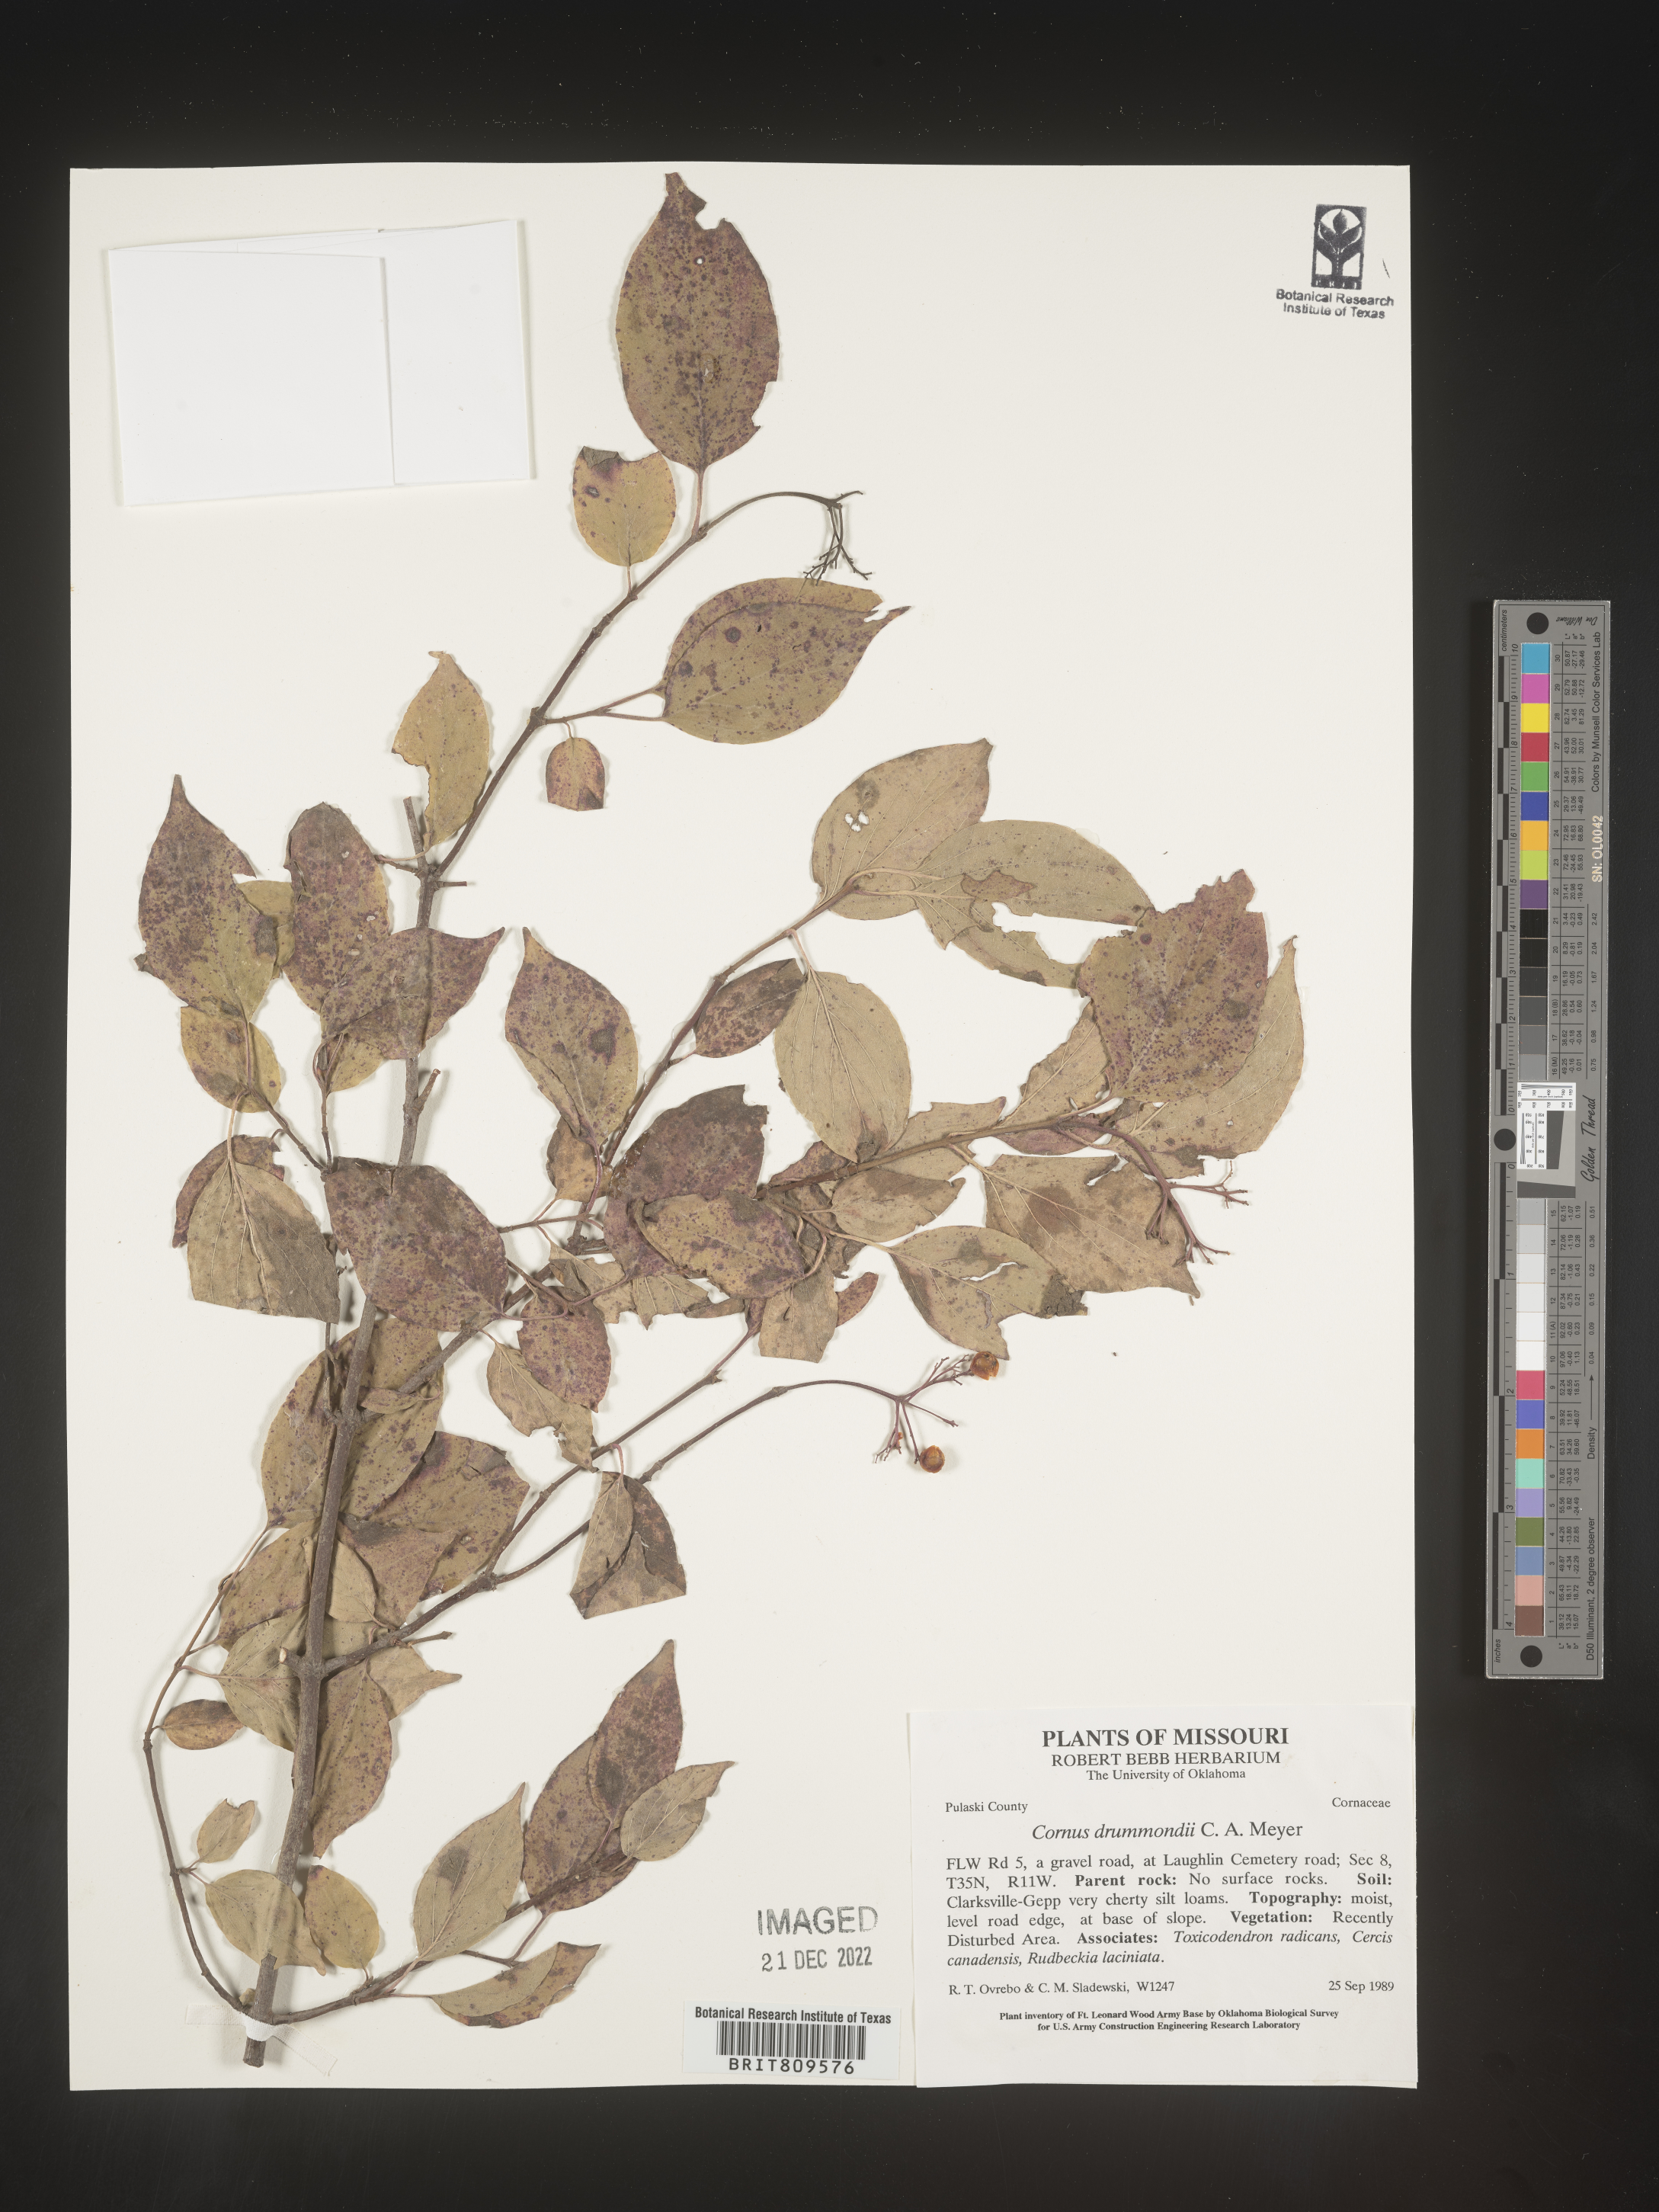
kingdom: Plantae
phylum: Tracheophyta
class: Magnoliopsida
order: Cornales
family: Cornaceae
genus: Cornus
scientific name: Cornus drummondii
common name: Rough-leaf dogwood
